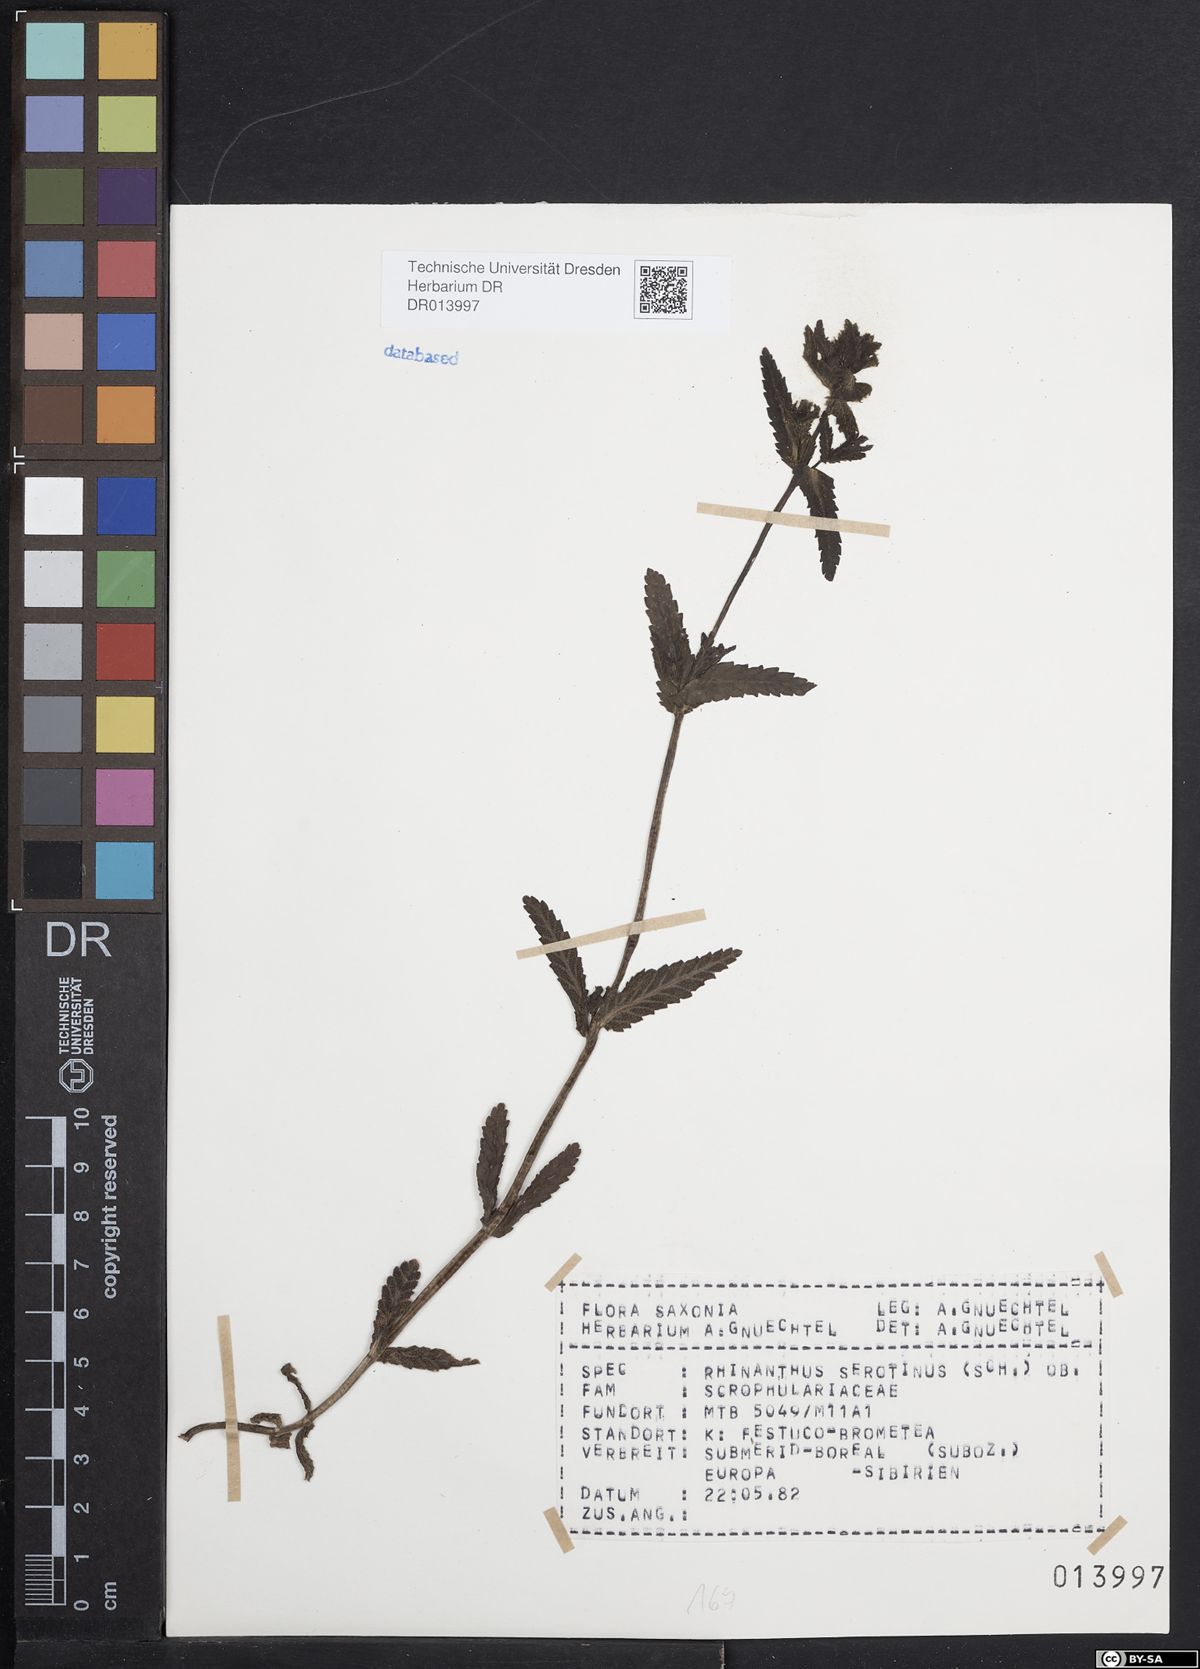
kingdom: Plantae
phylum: Tracheophyta
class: Magnoliopsida
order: Lamiales
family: Orobanchaceae
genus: Rhinanthus
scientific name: Rhinanthus serotinus
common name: Late-flowering yellow rattle
